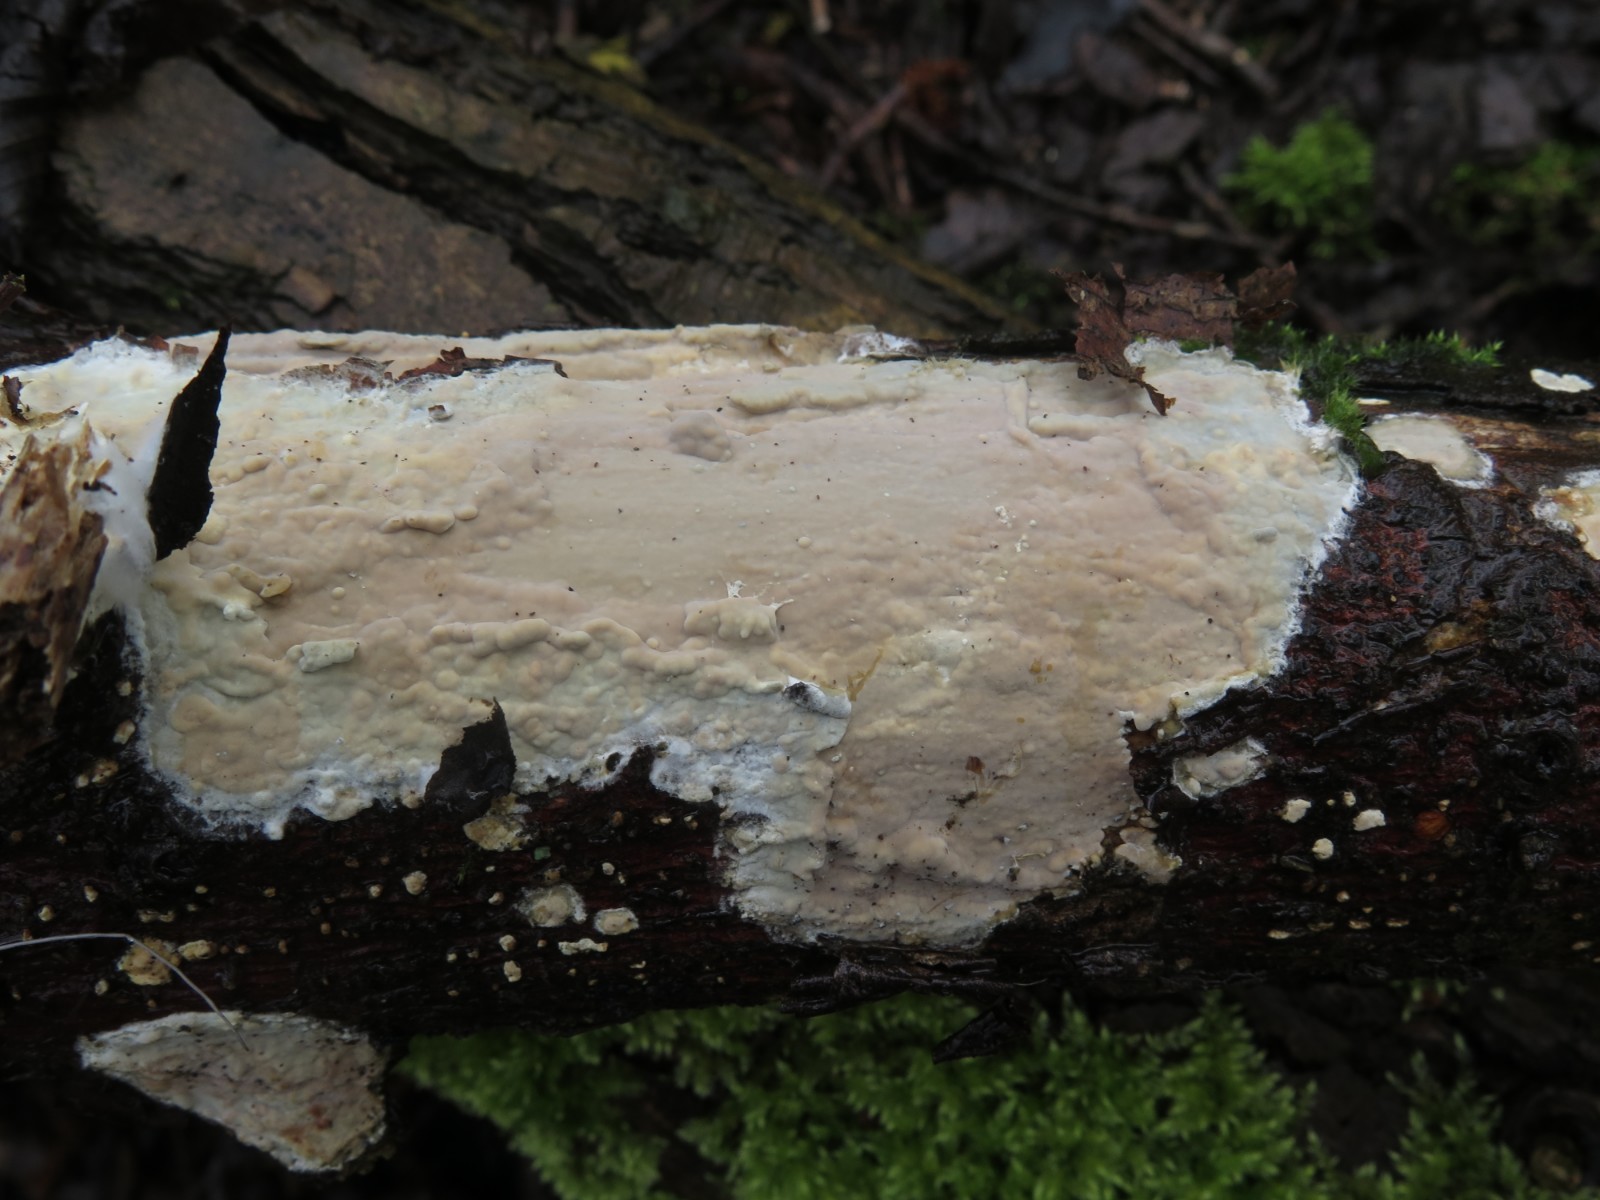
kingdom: Fungi
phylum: Basidiomycota
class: Agaricomycetes
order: Agaricales
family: Radulomycetaceae
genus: Radulomyces
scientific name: Radulomyces confluens
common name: glat naftalinskind
